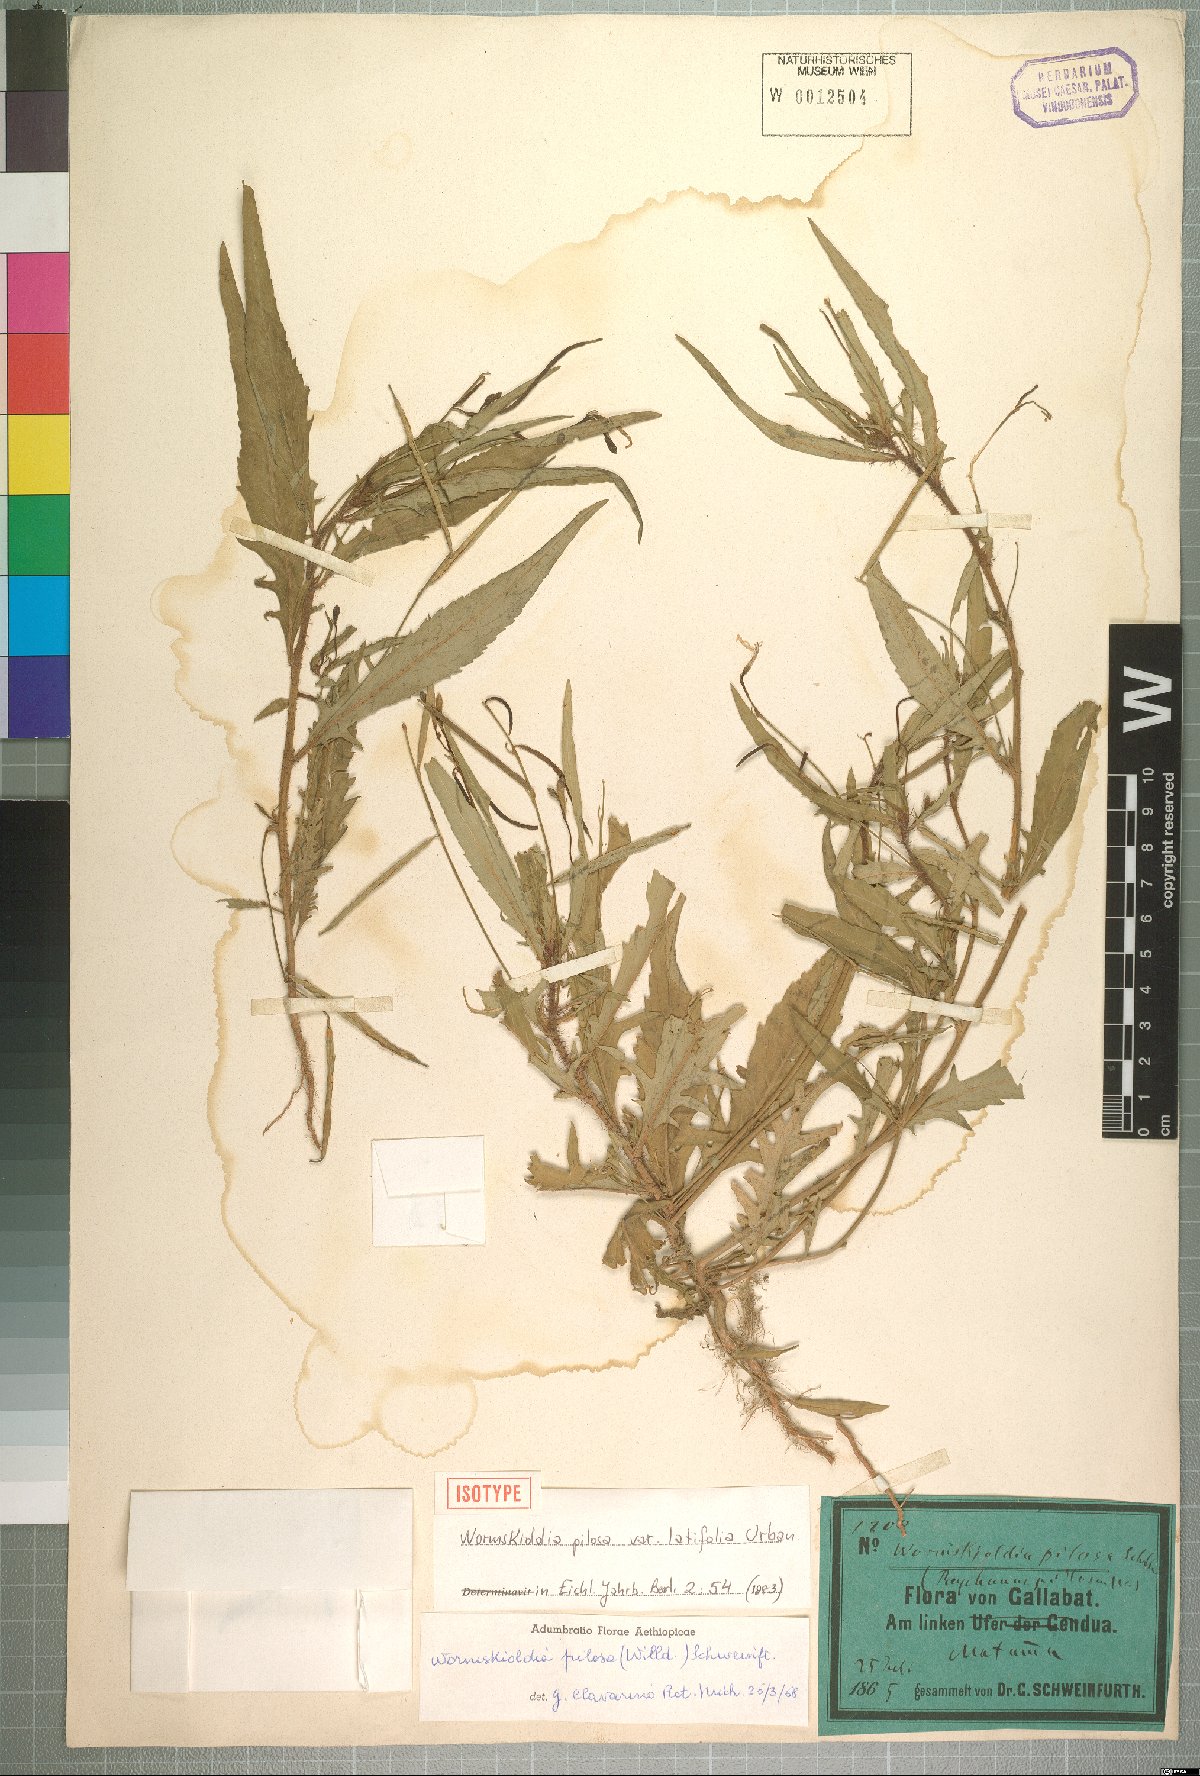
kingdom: Plantae
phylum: Tracheophyta
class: Magnoliopsida
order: Malpighiales
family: Turneraceae
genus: Tricliceras
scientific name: Tricliceras pilosum
